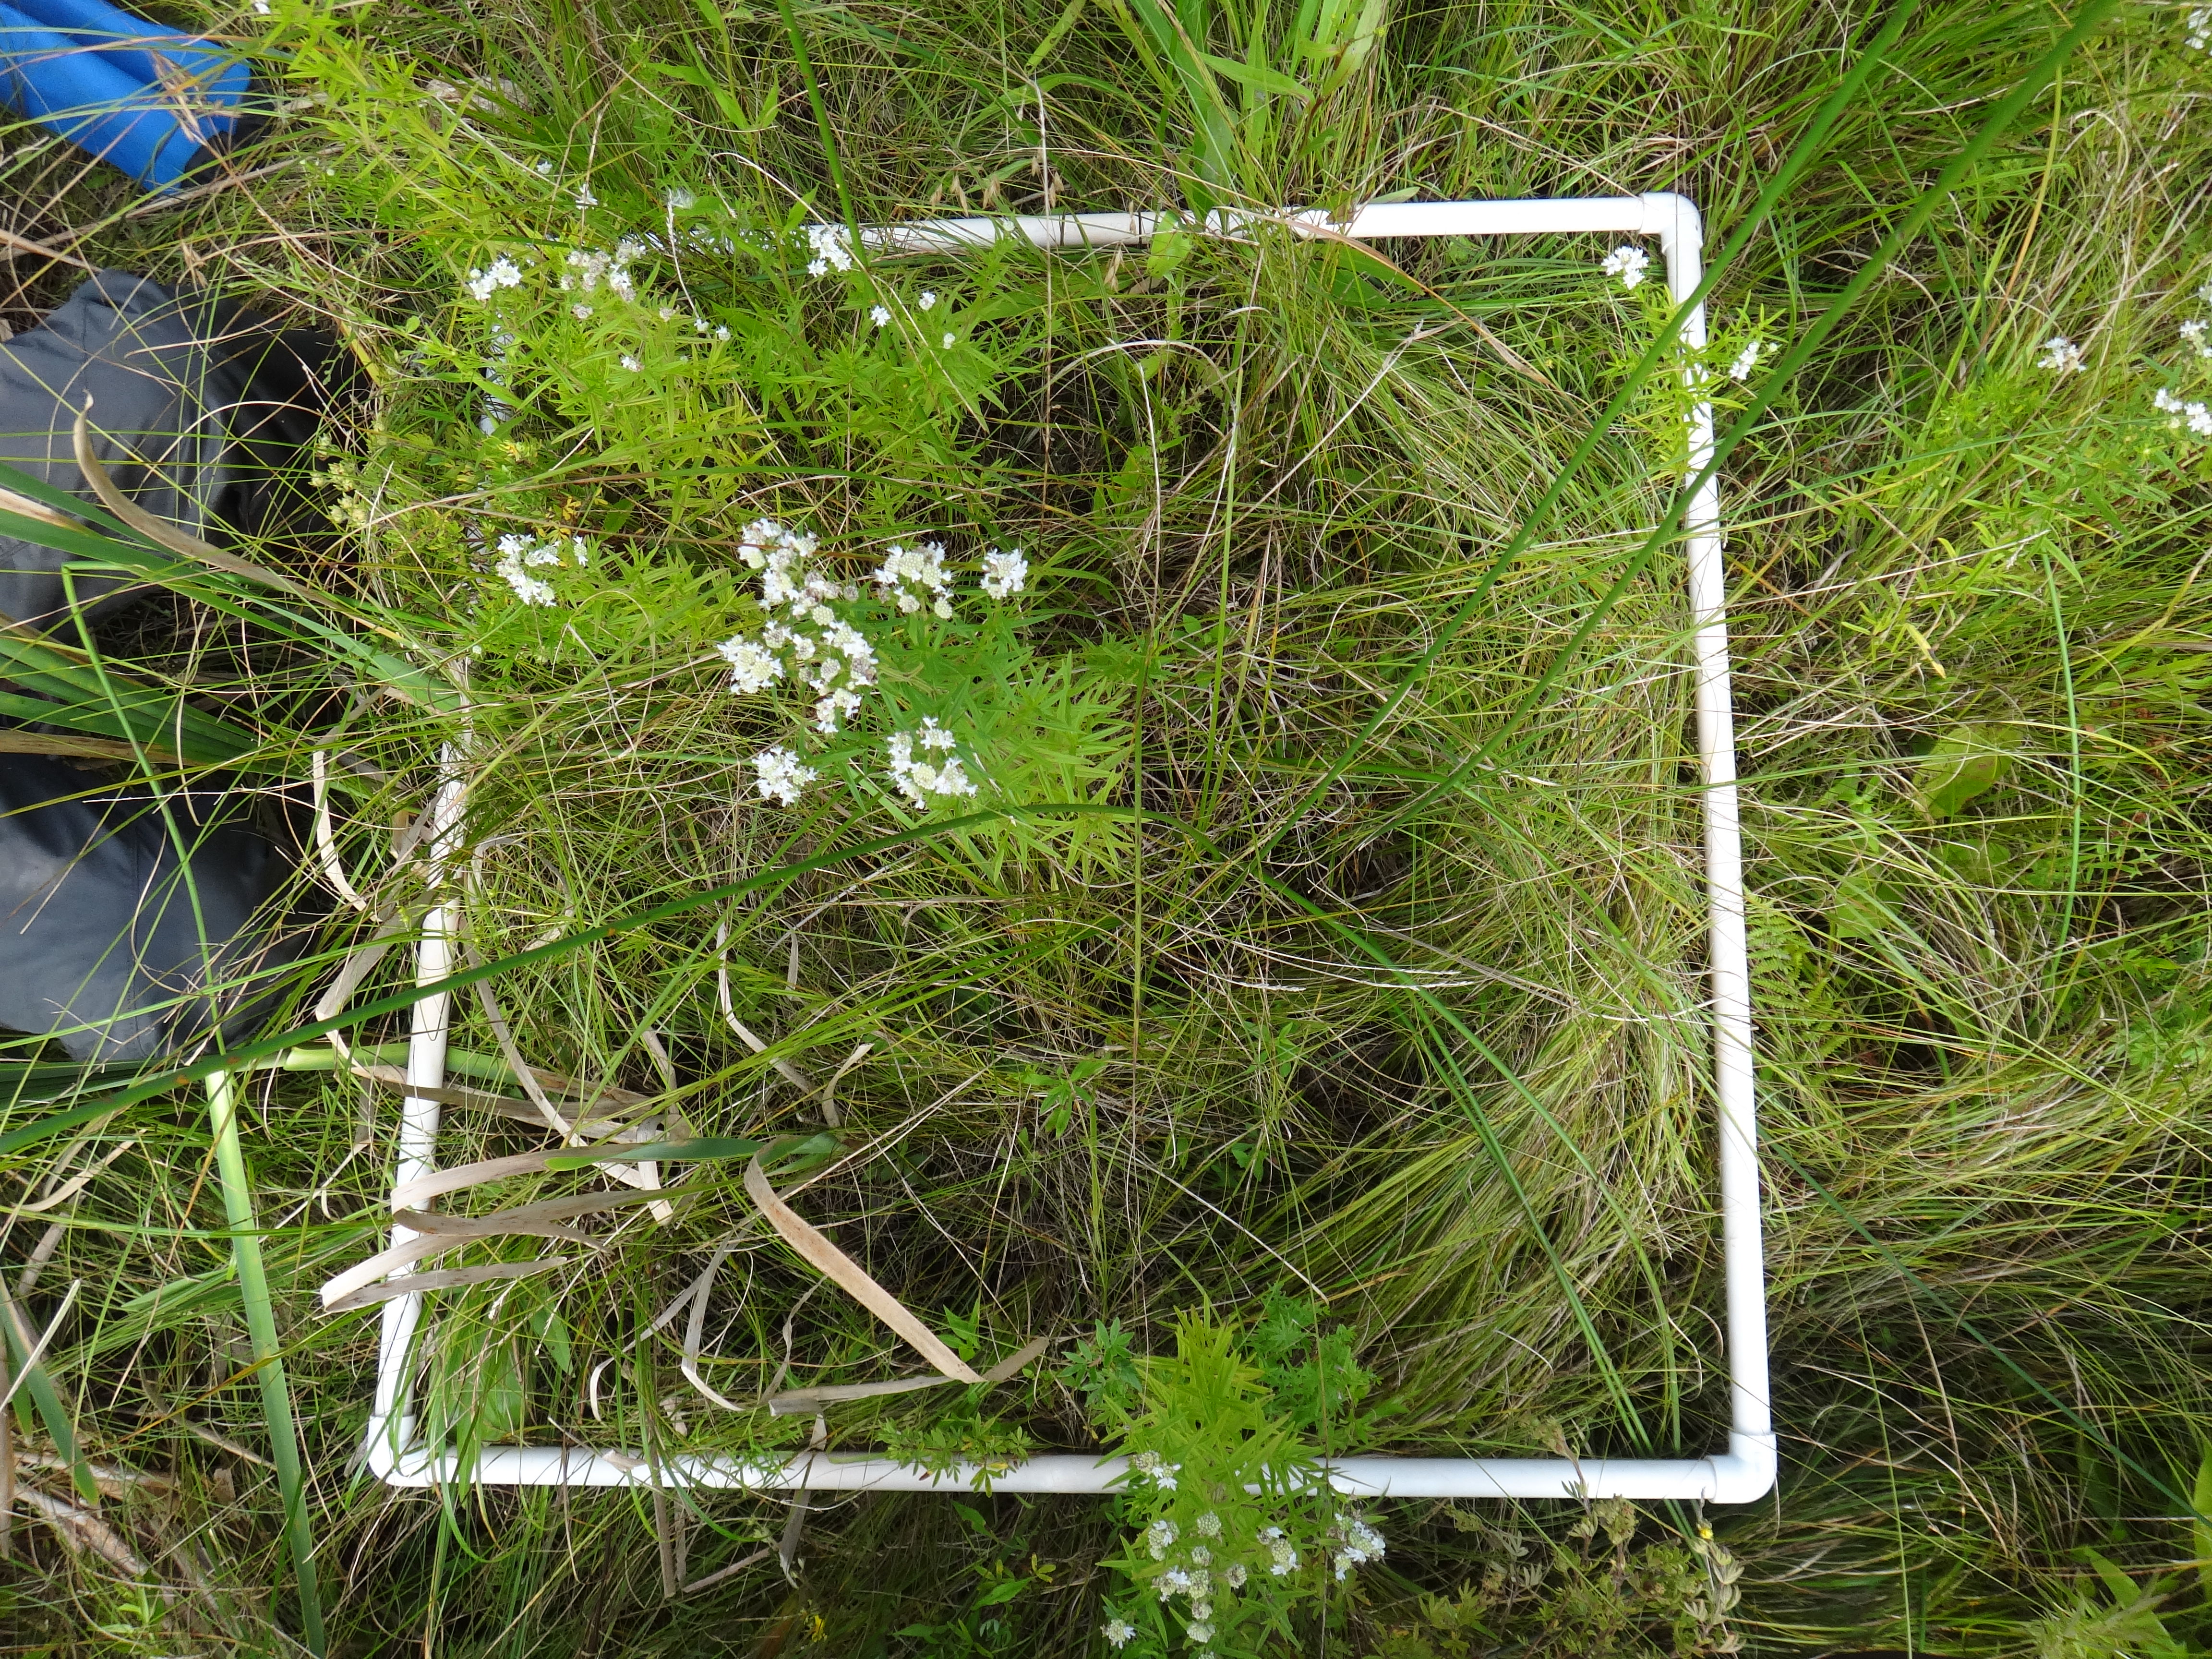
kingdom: Plantae
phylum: Tracheophyta
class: Polypodiopsida
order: Polypodiales
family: Thelypteridaceae
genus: Thelypteris
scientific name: Thelypteris palustris
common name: Marsh fern
